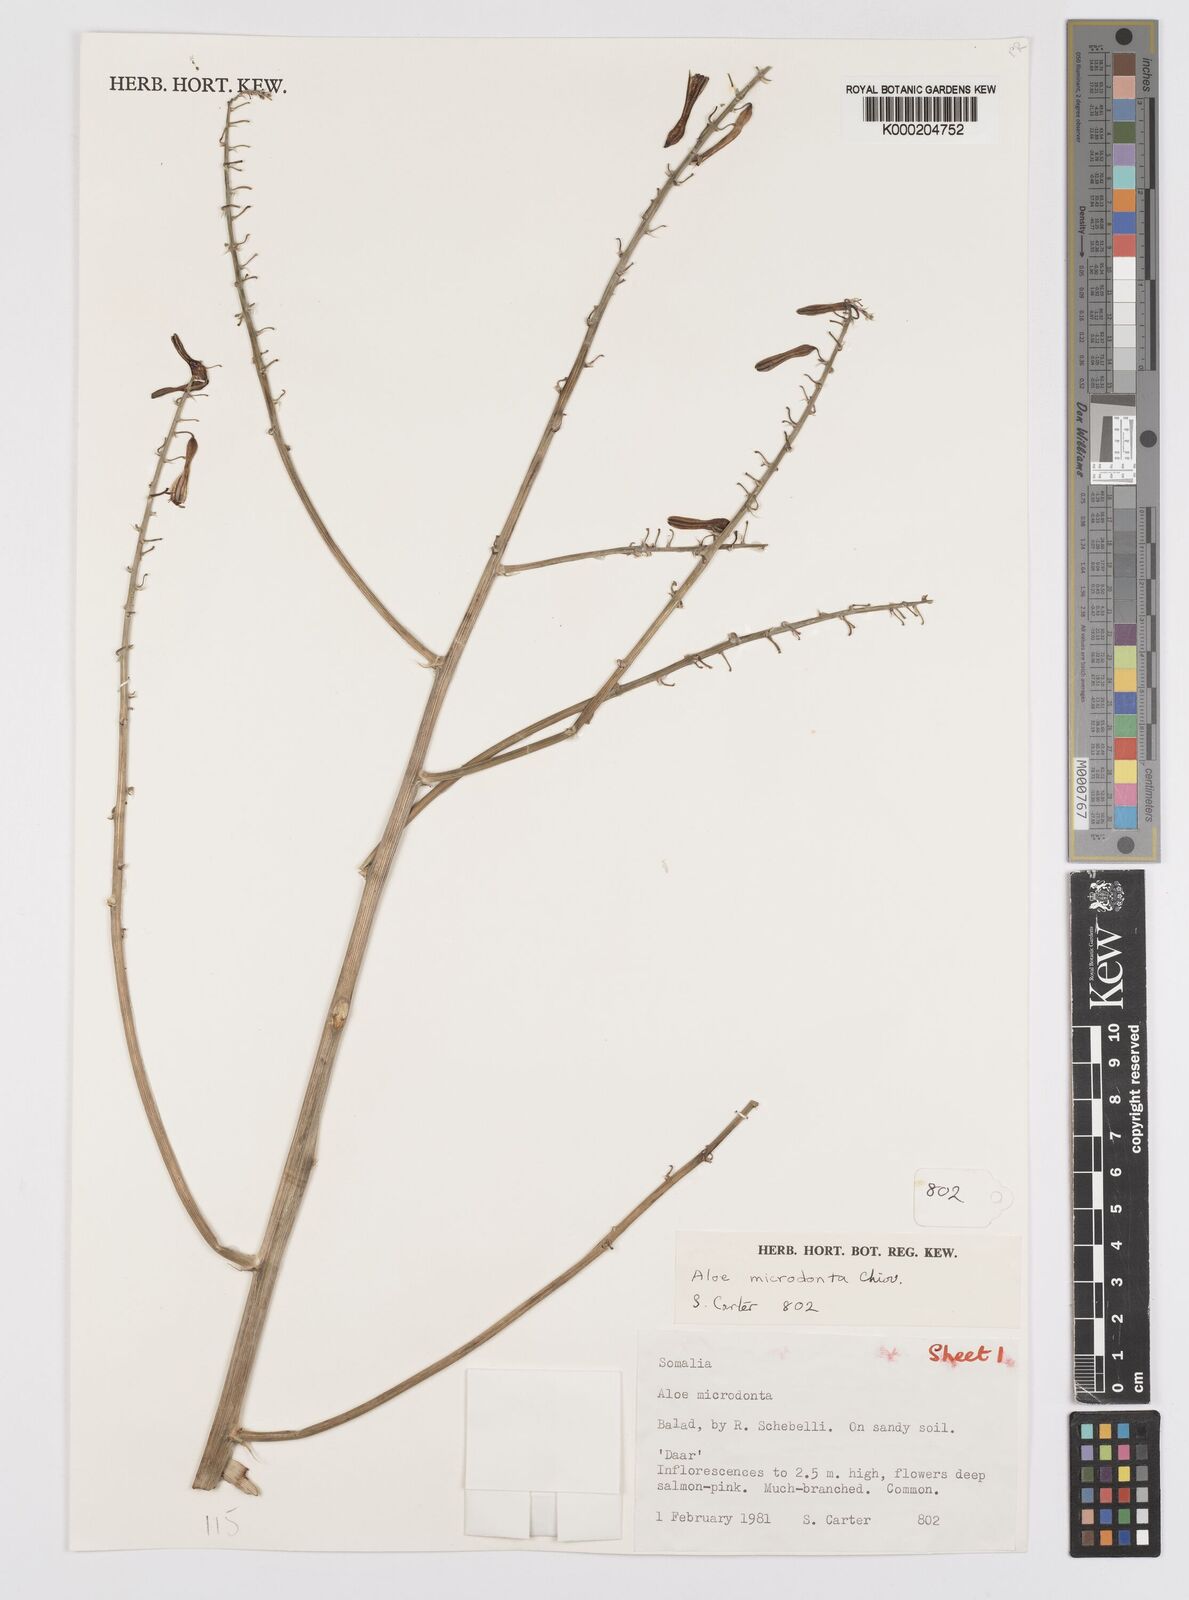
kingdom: Plantae
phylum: Tracheophyta
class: Liliopsida
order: Asparagales
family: Asphodelaceae
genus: Aloe
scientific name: Aloe microdonta
